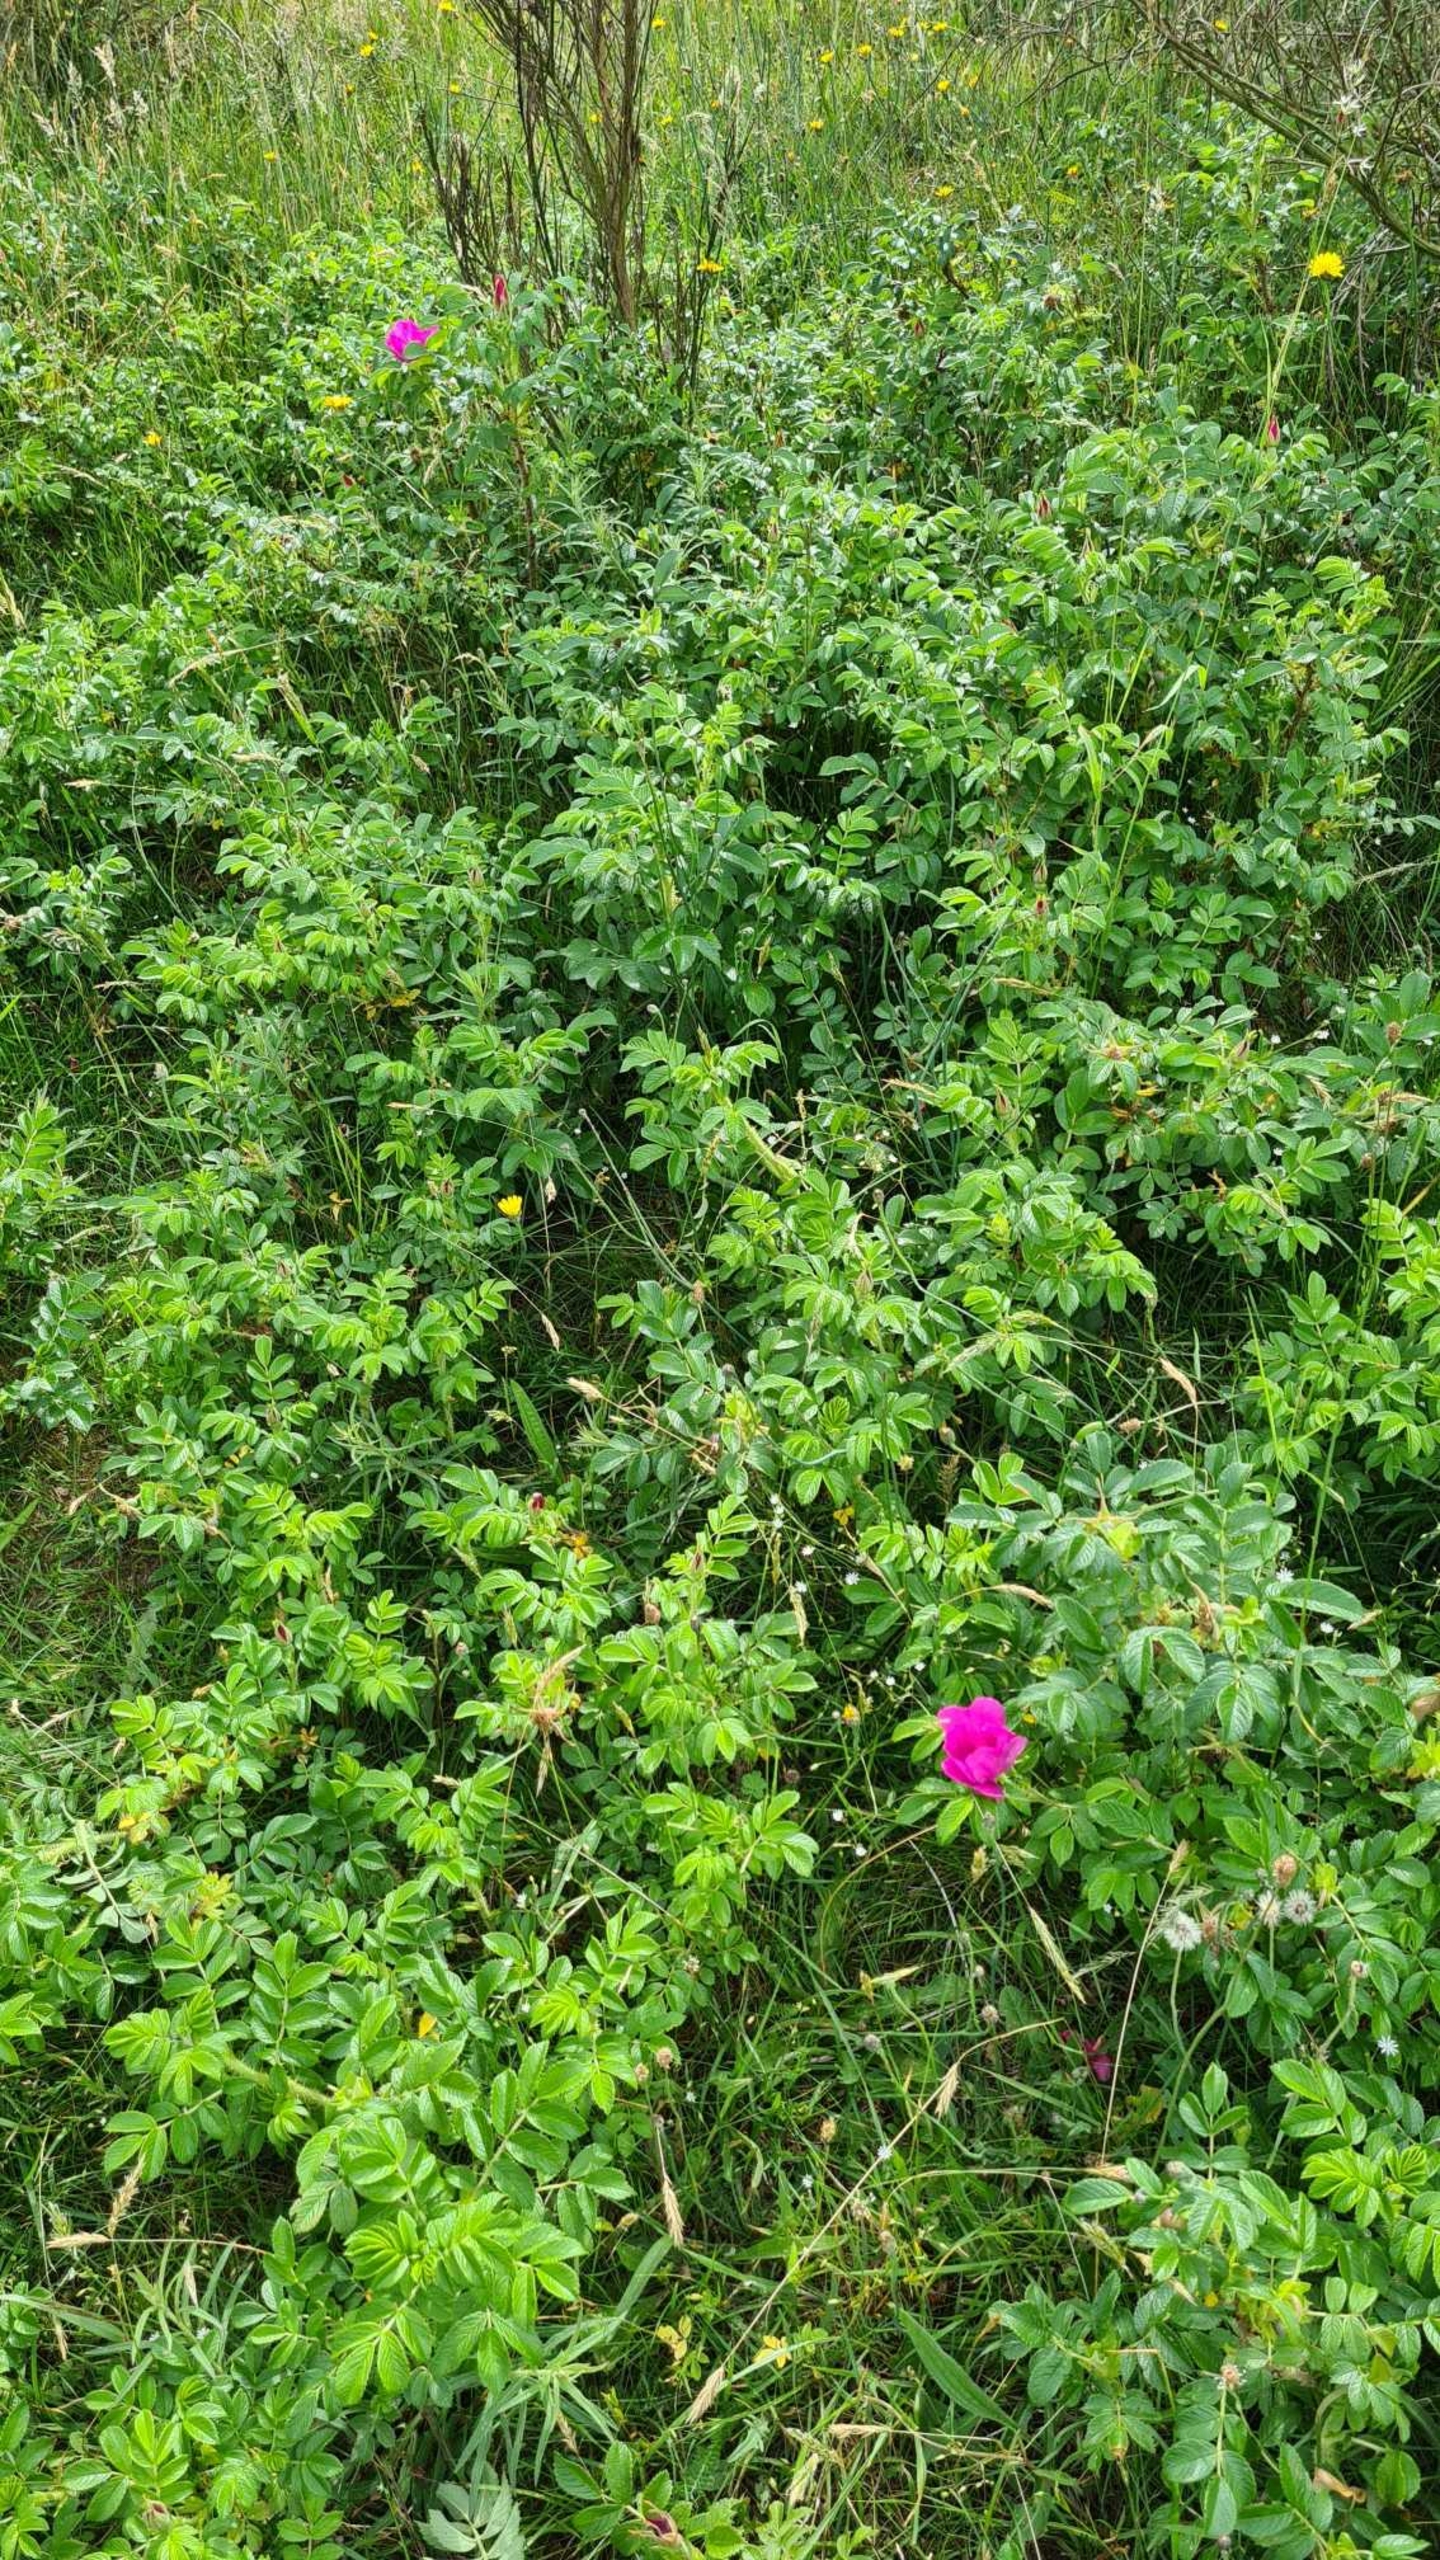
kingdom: Plantae
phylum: Tracheophyta
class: Magnoliopsida
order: Rosales
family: Rosaceae
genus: Rosa
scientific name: Rosa rugosa
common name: Rynket rose
